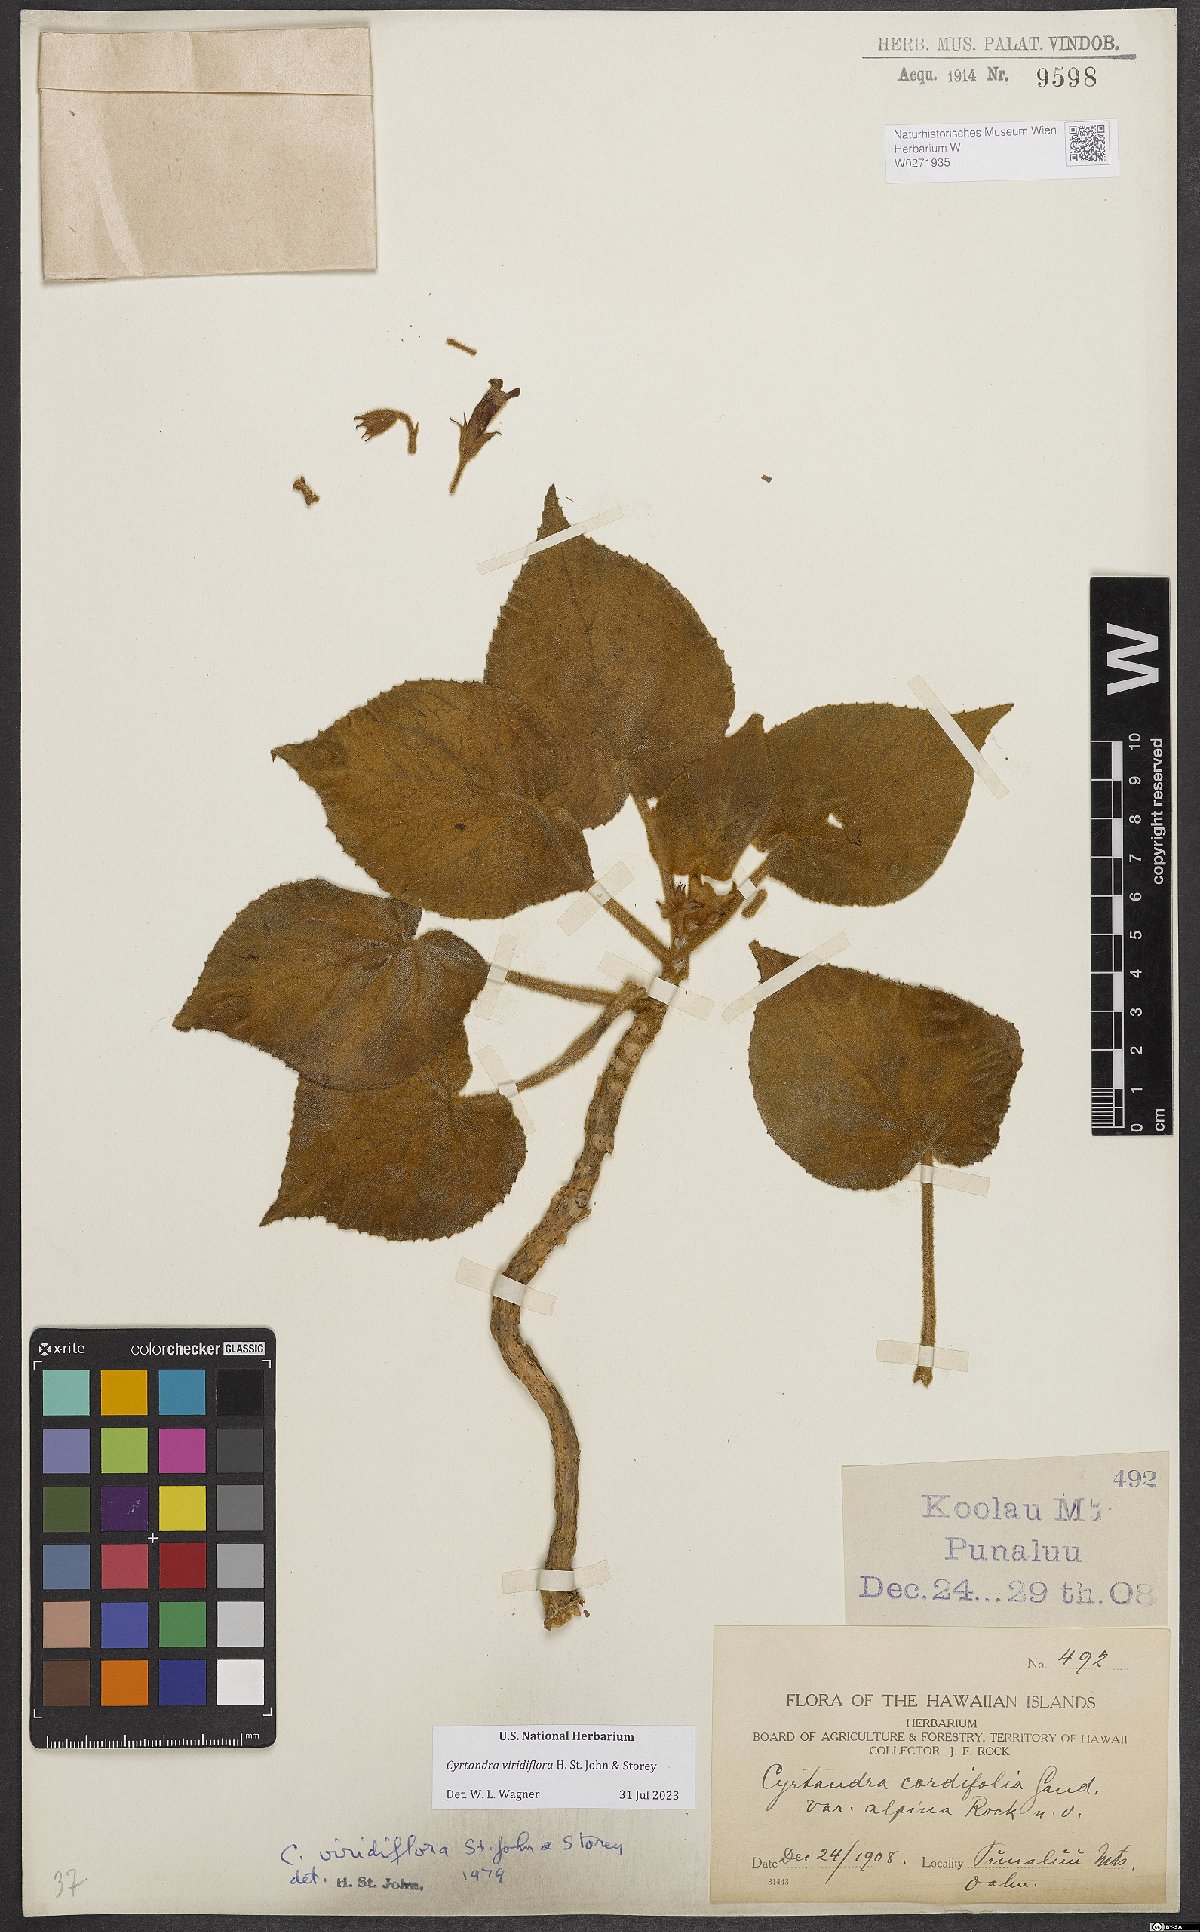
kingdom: Plantae
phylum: Tracheophyta
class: Magnoliopsida
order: Lamiales
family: Gesneriaceae
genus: Cyrtandra
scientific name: Cyrtandra viridiflora
